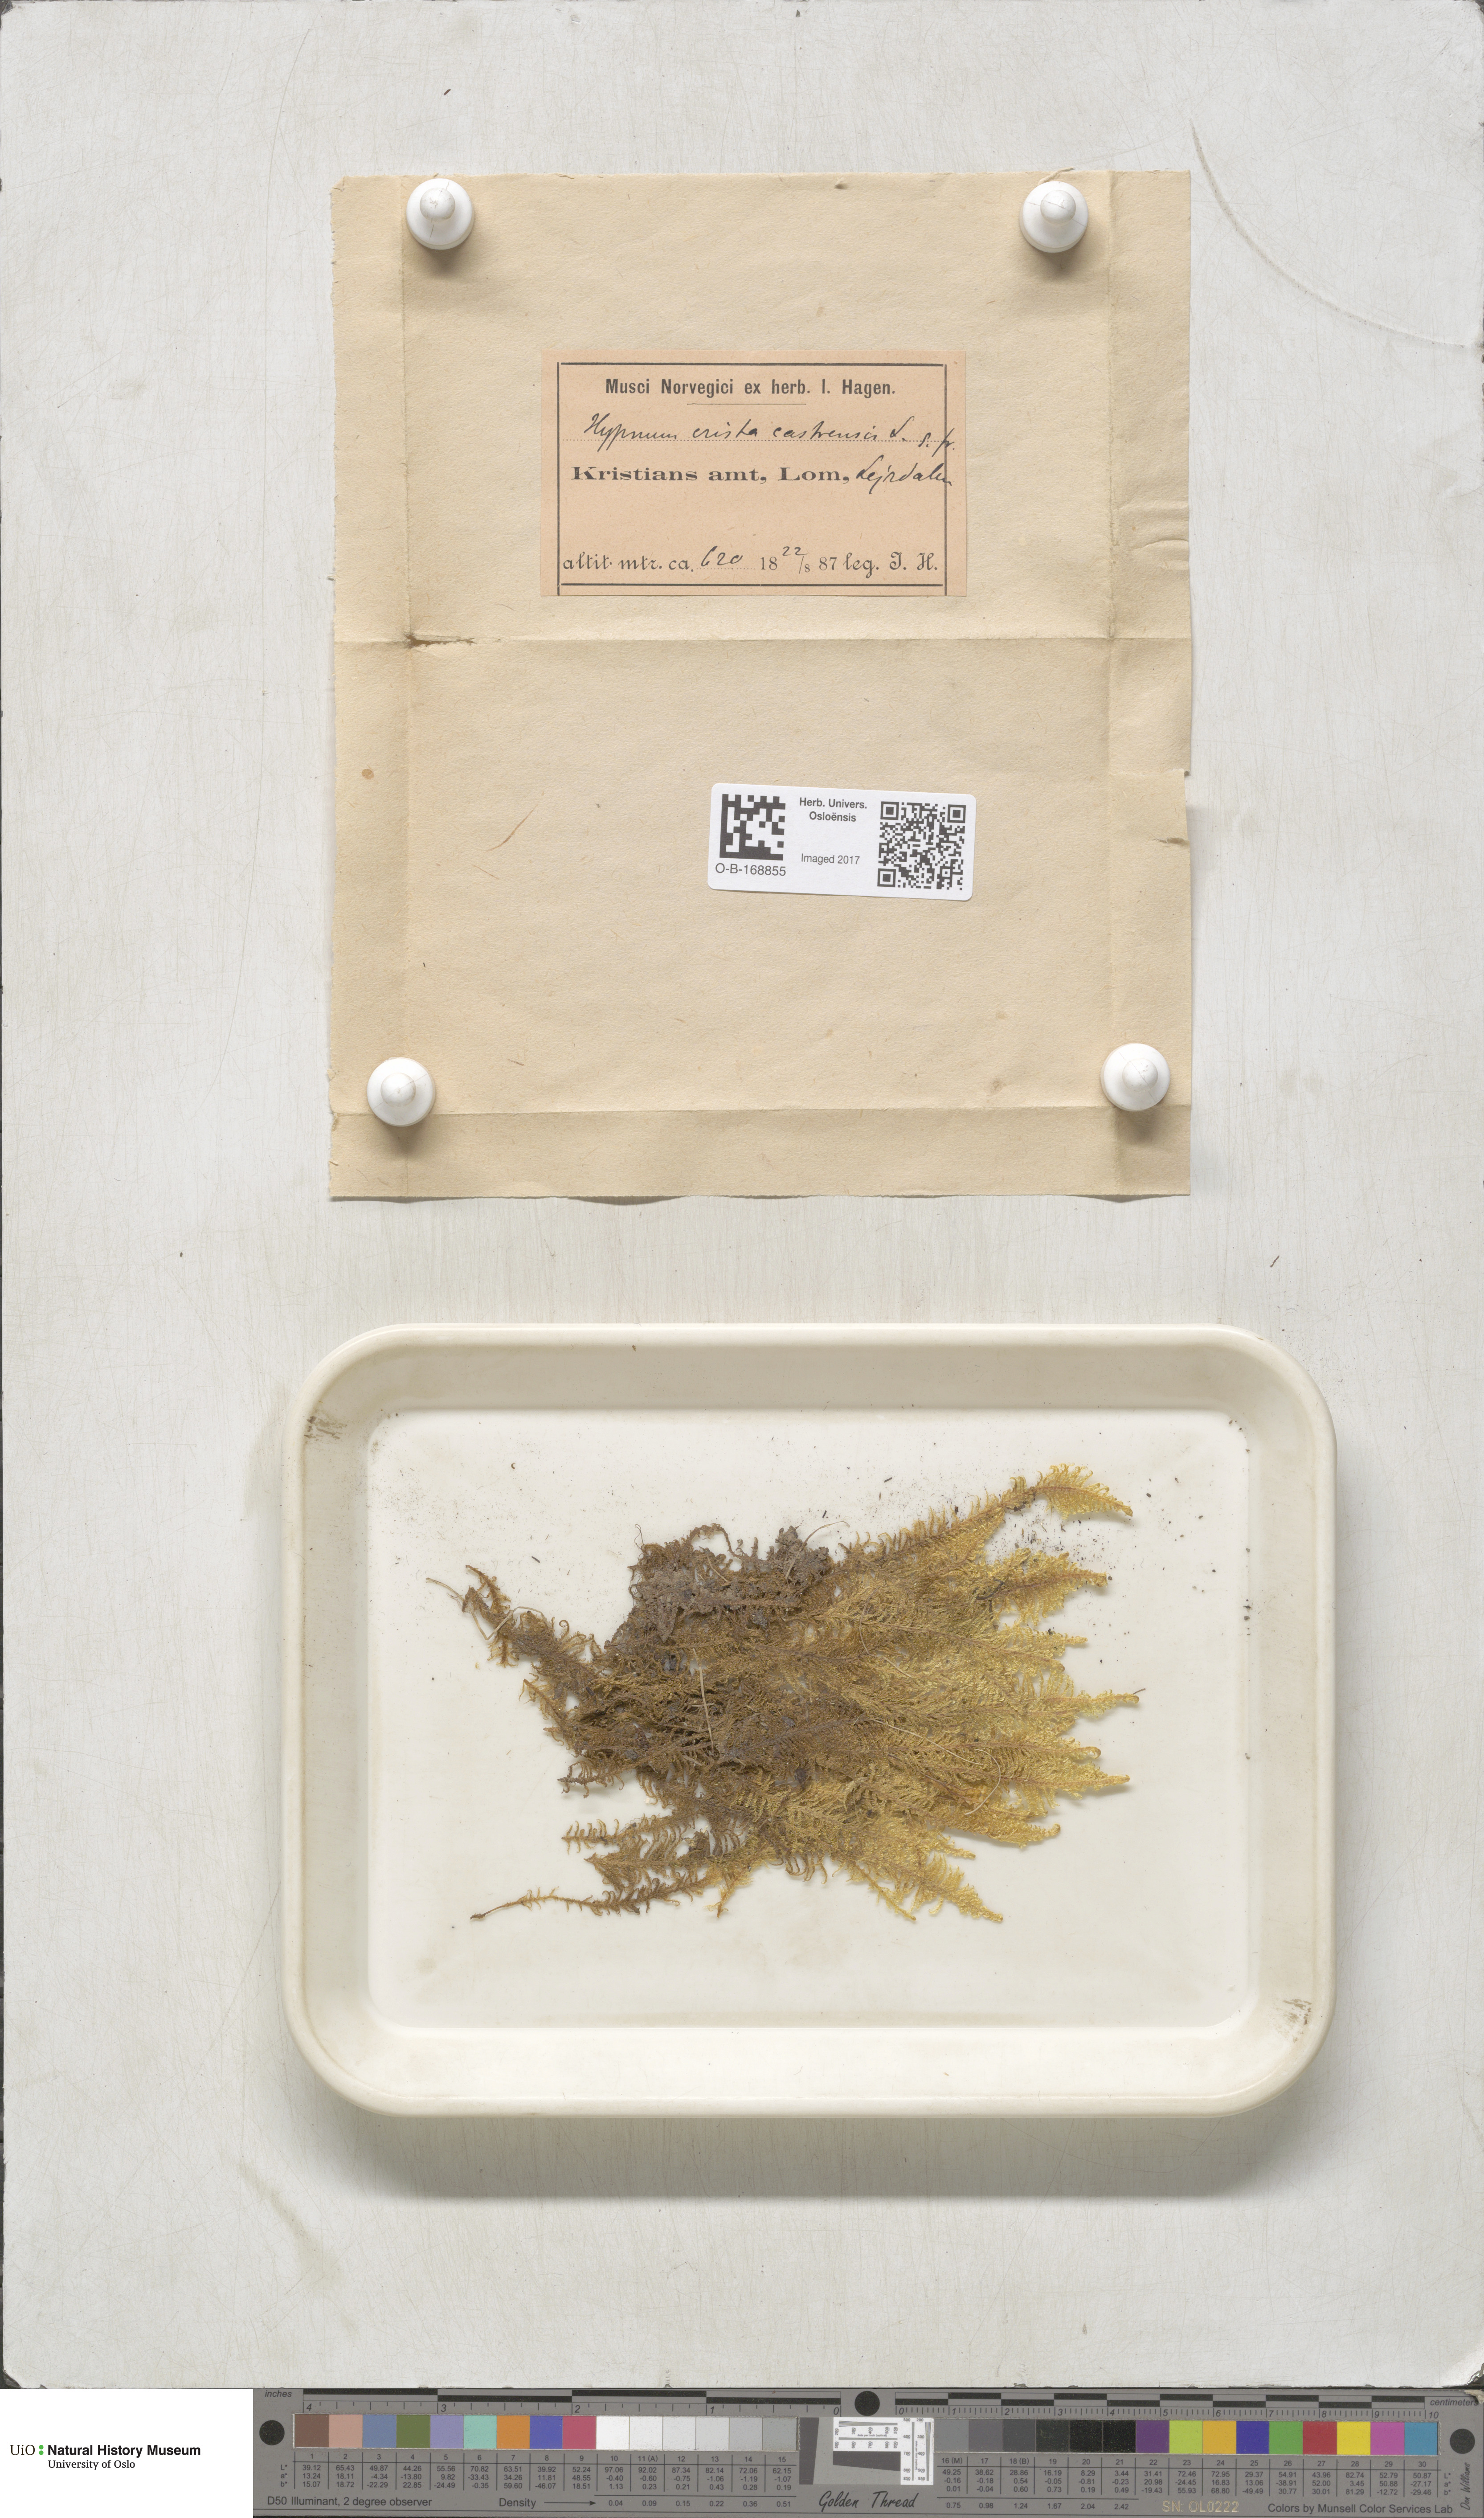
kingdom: Plantae
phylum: Bryophyta
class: Bryopsida
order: Hypnales
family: Pylaisiaceae
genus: Ptilium
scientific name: Ptilium crista-castrensis
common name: Knight's plume moss
